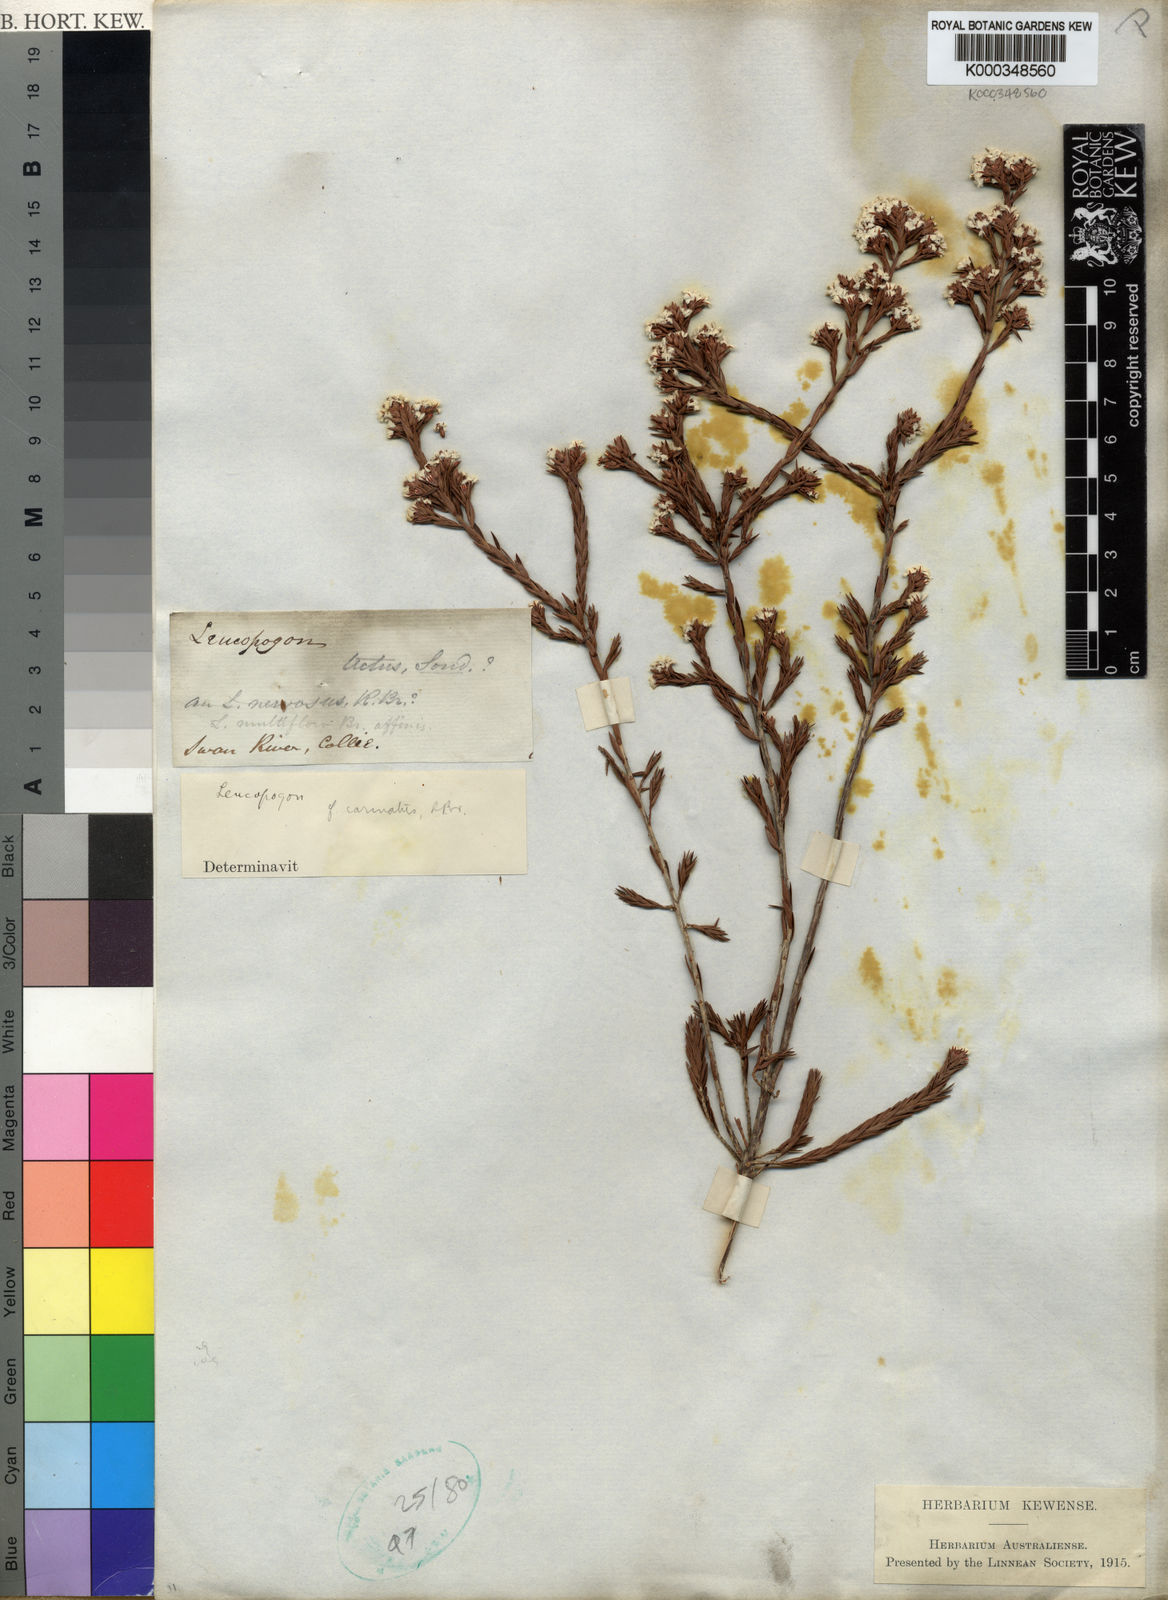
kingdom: Plantae
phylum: Tracheophyta
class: Magnoliopsida
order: Ericales
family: Ericaceae
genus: Leucopogon
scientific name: Leucopogon carinatus
